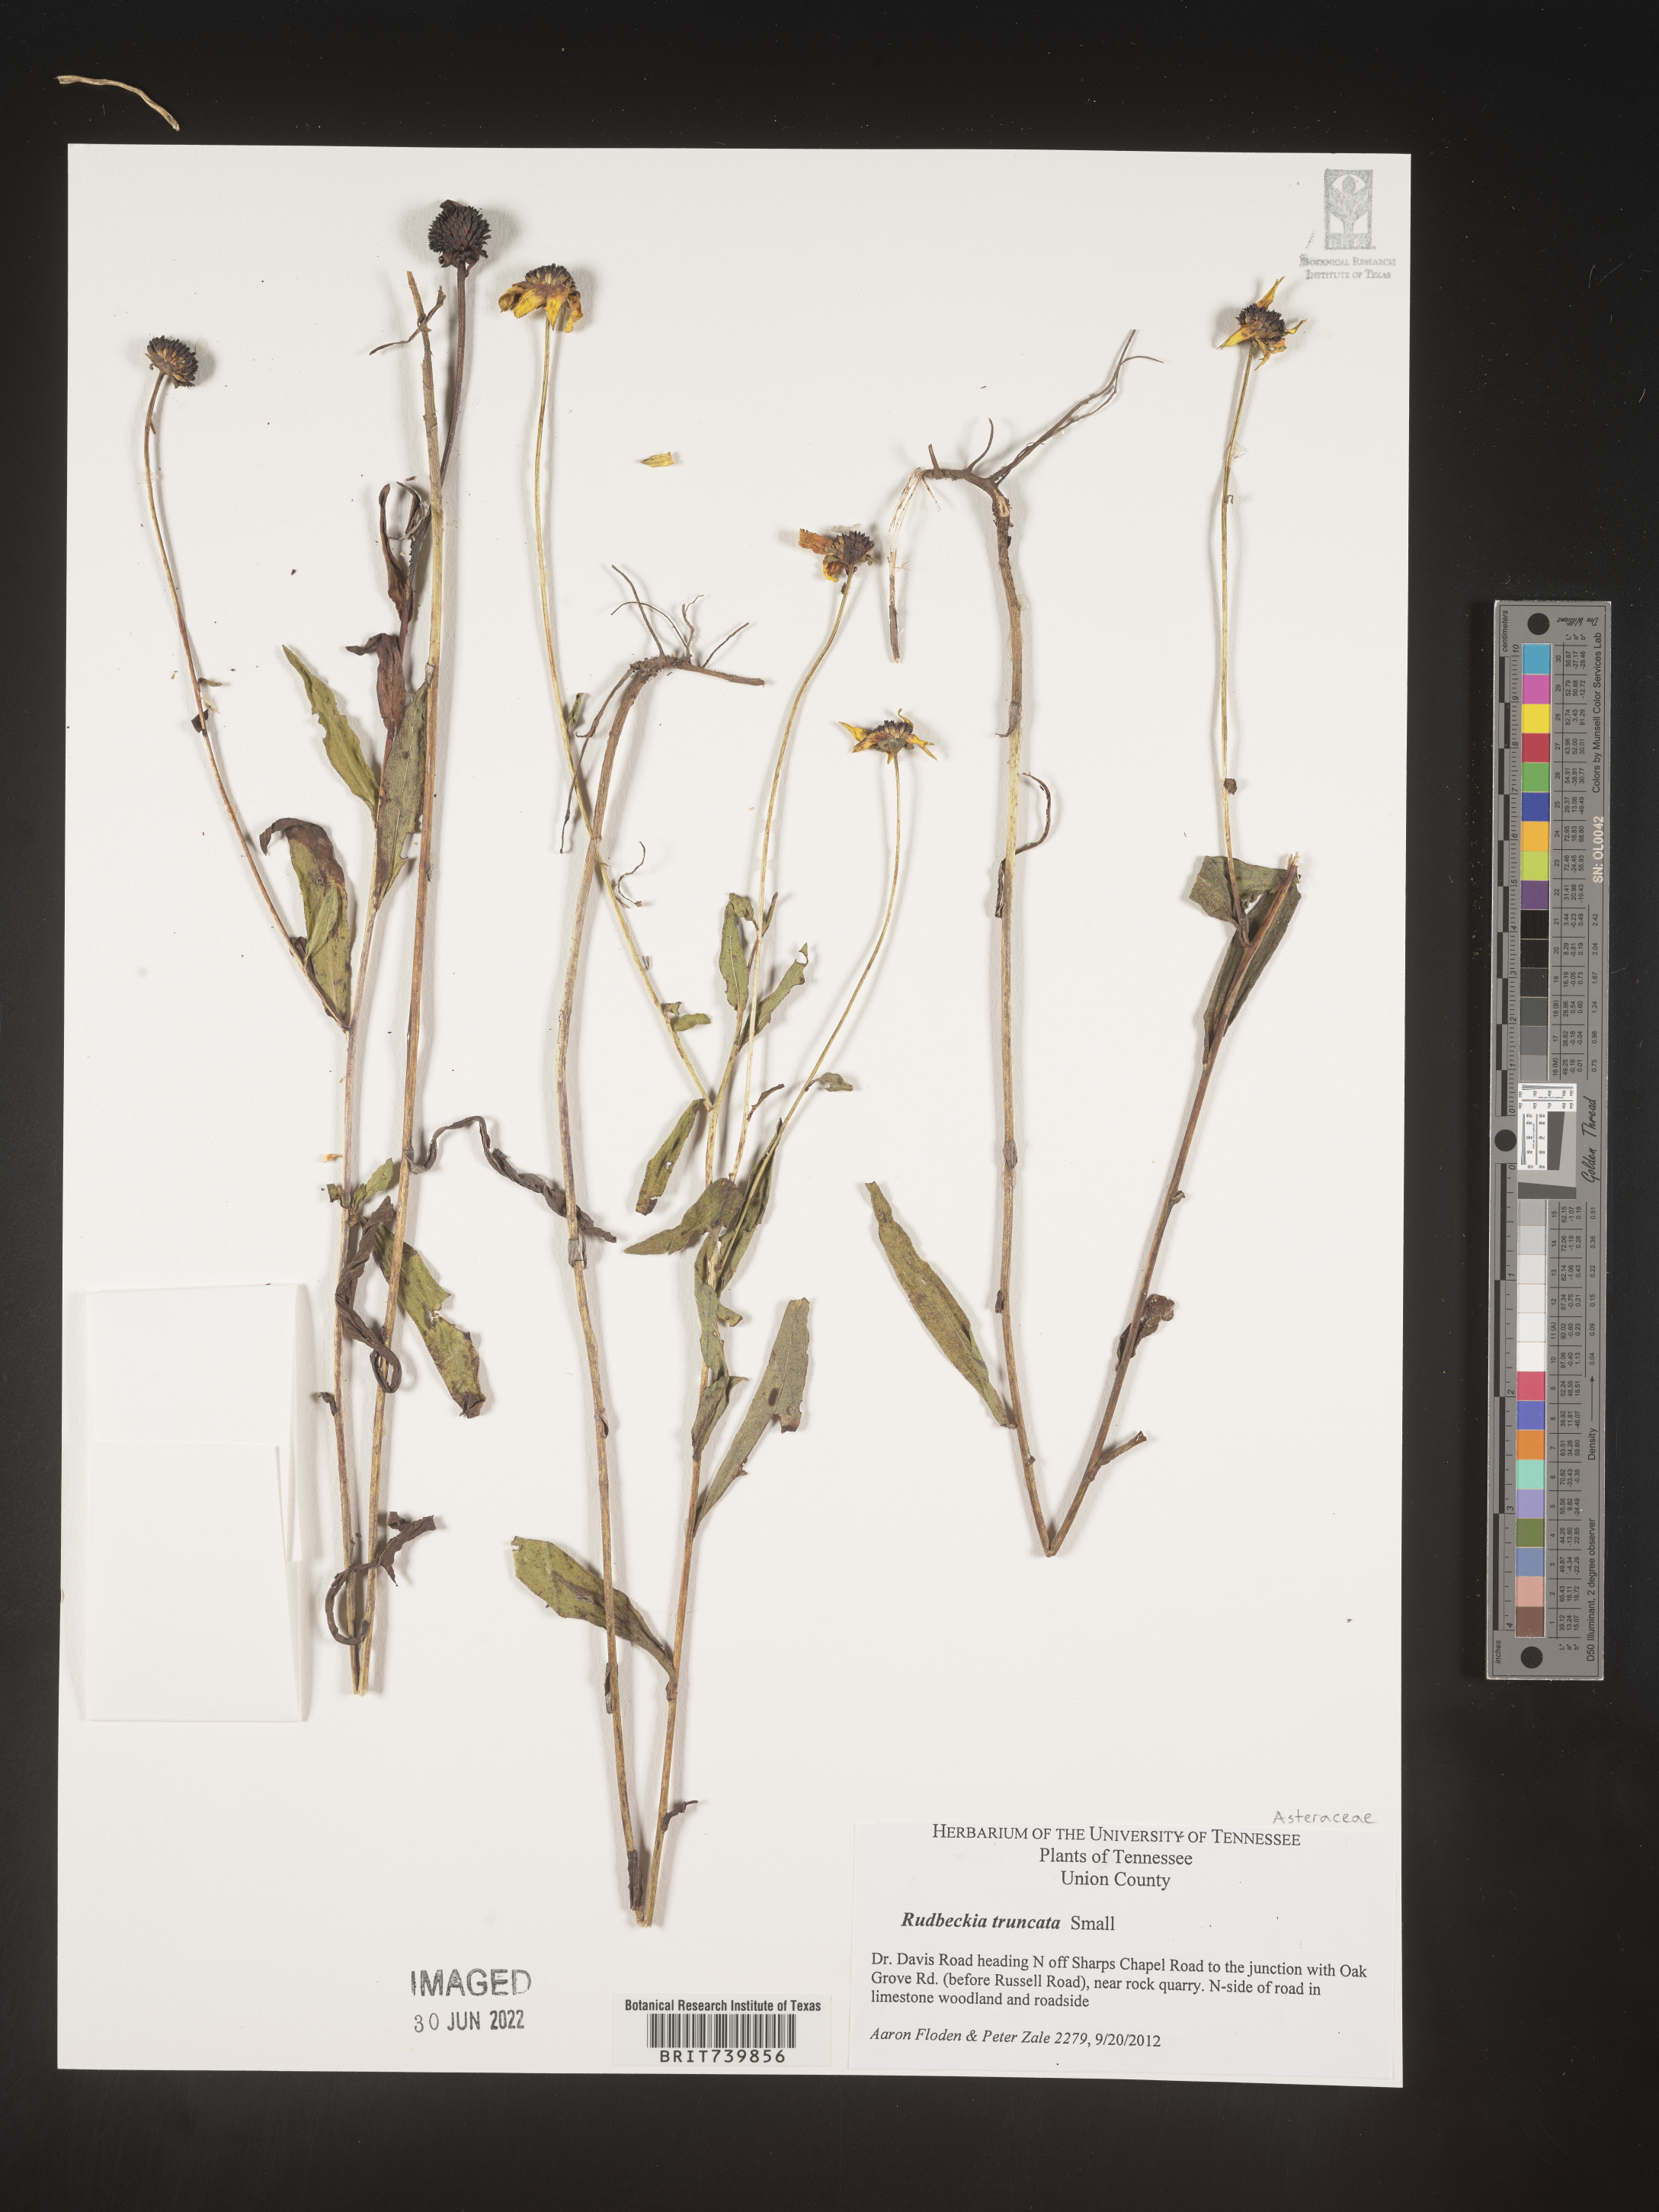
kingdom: Plantae
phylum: Tracheophyta
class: Magnoliopsida
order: Asterales
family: Asteraceae
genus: Rudbeckia
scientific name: Rudbeckia
